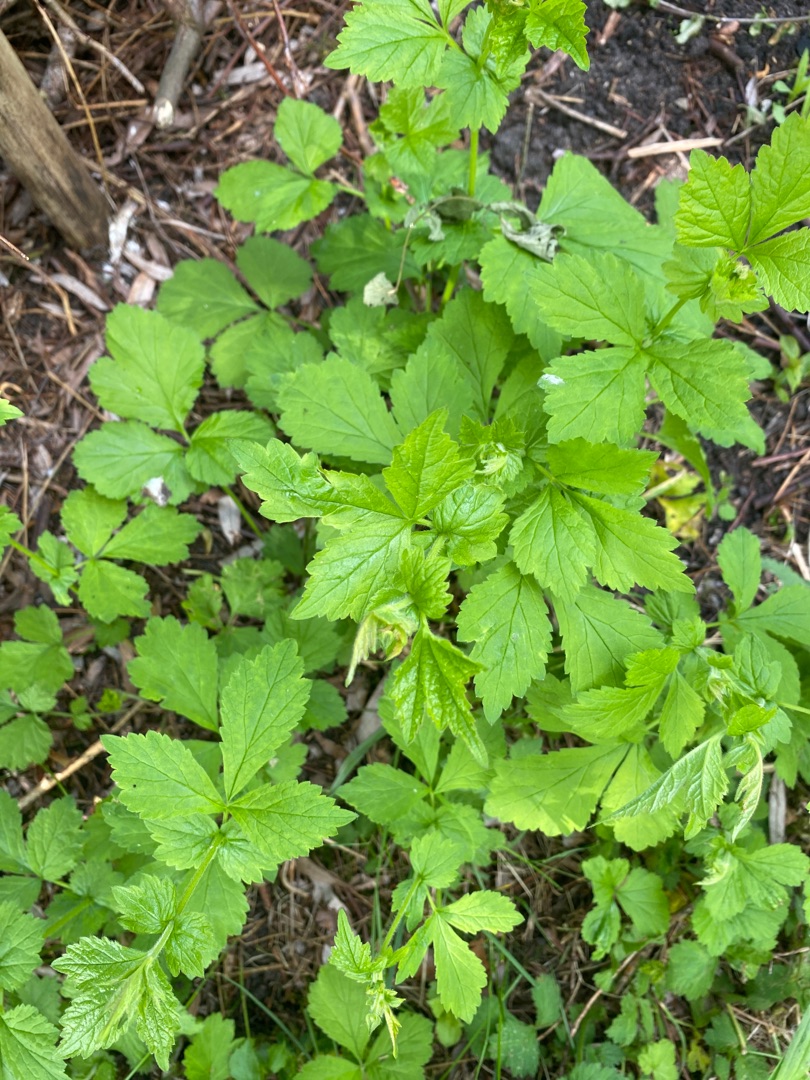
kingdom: Plantae
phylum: Tracheophyta
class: Magnoliopsida
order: Rosales
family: Rosaceae
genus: Geum
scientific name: Geum urbanum
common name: Feber-nellikerod
